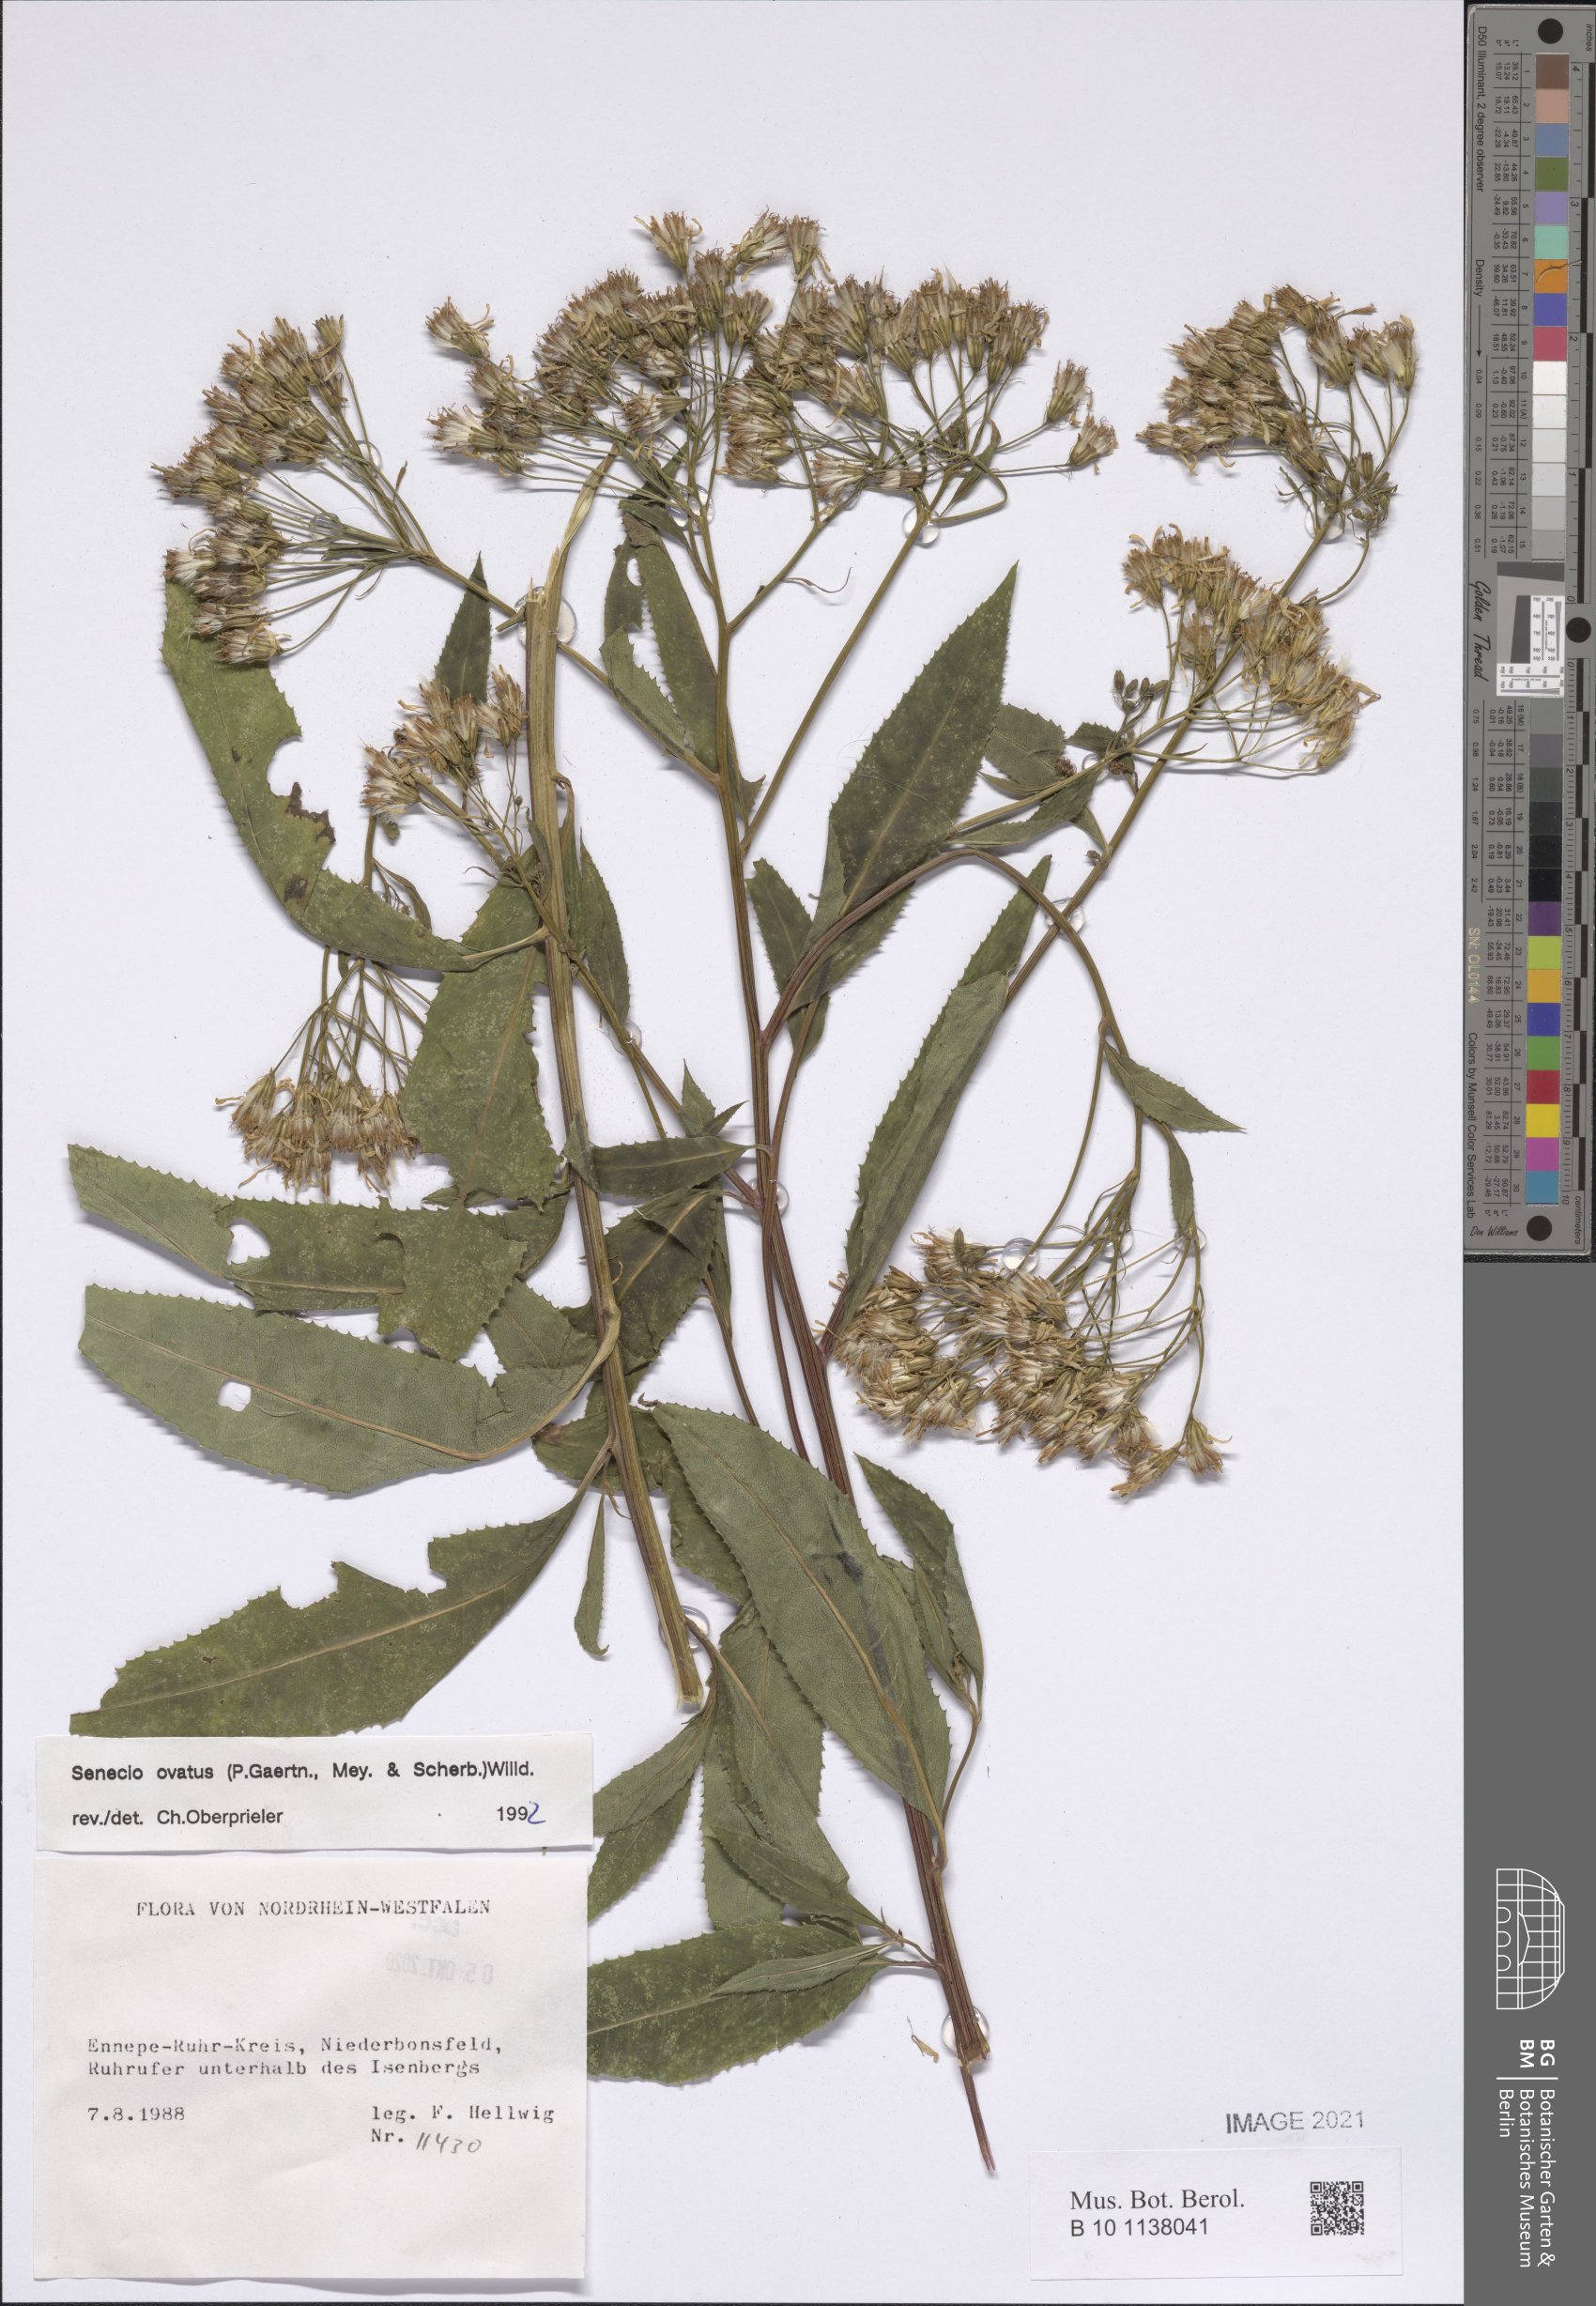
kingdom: Plantae
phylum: Tracheophyta
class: Magnoliopsida
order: Asterales
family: Asteraceae
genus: Senecio
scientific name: Senecio ovatus
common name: Wood ragwort
